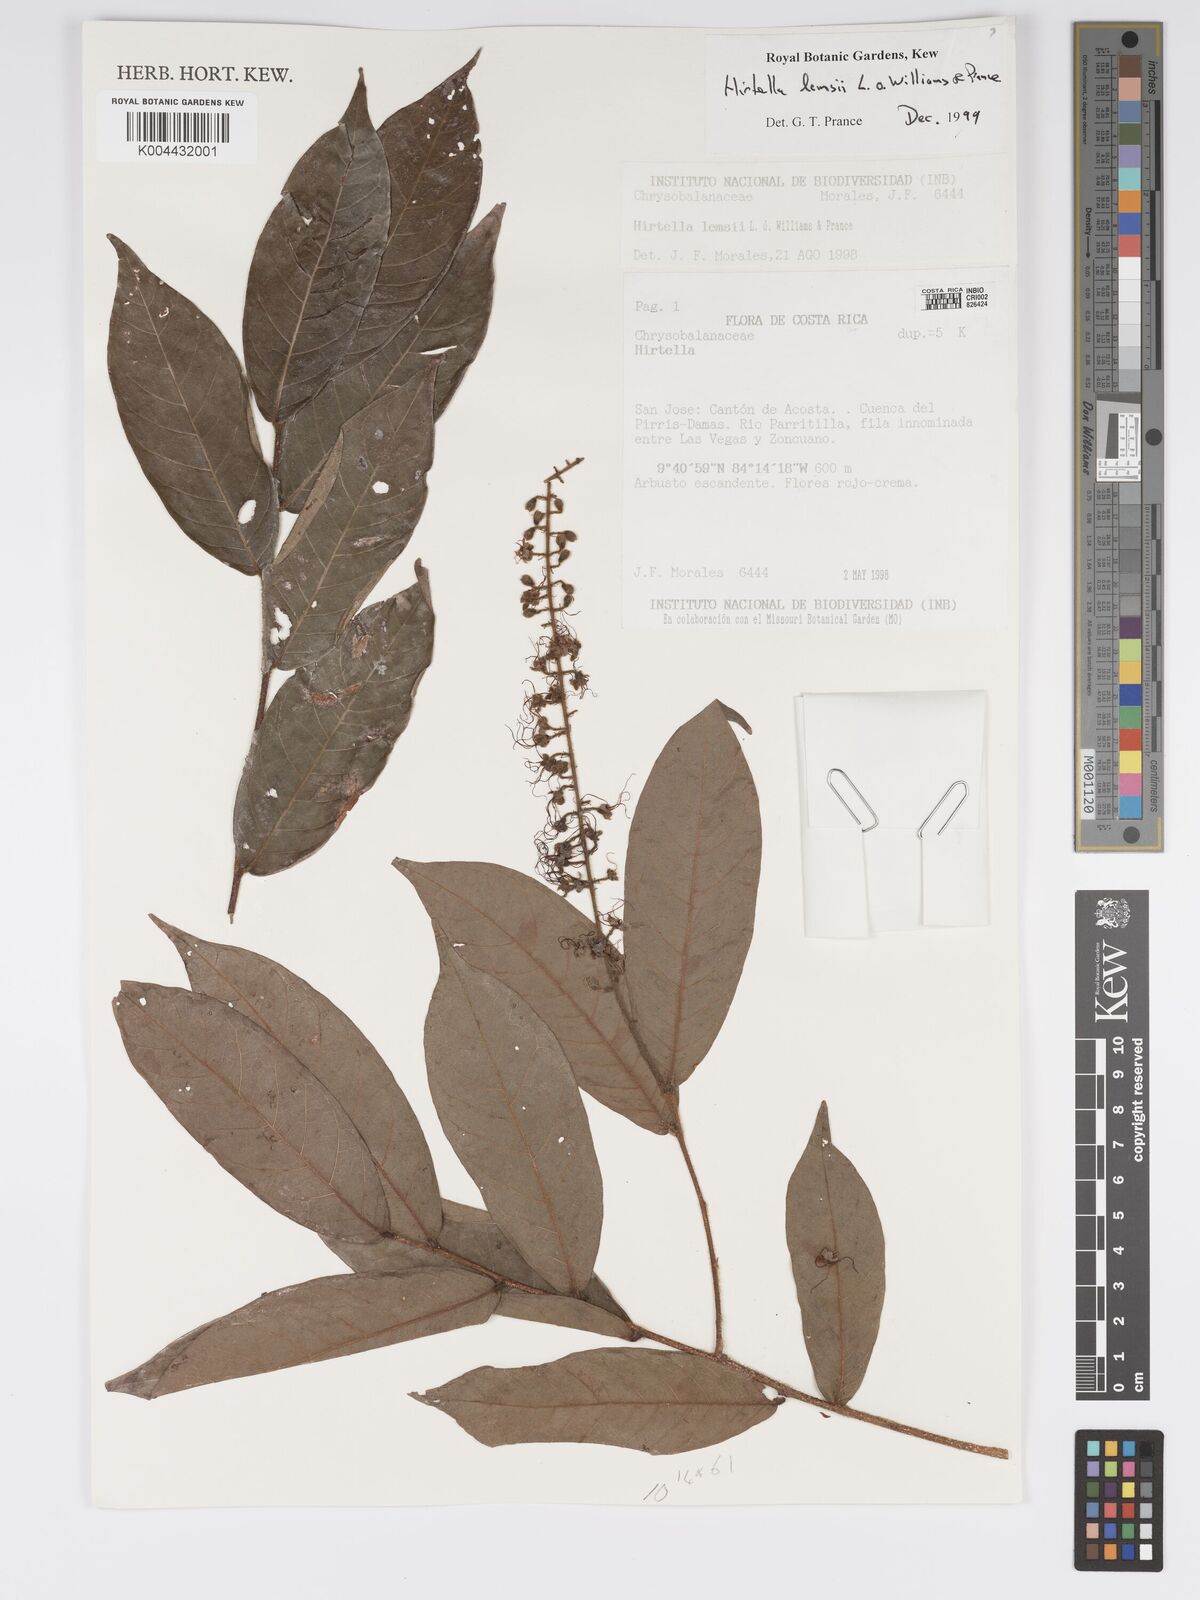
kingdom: Plantae
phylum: Tracheophyta
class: Magnoliopsida
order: Malpighiales
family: Chrysobalanaceae
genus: Hirtella
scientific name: Hirtella lemsii
